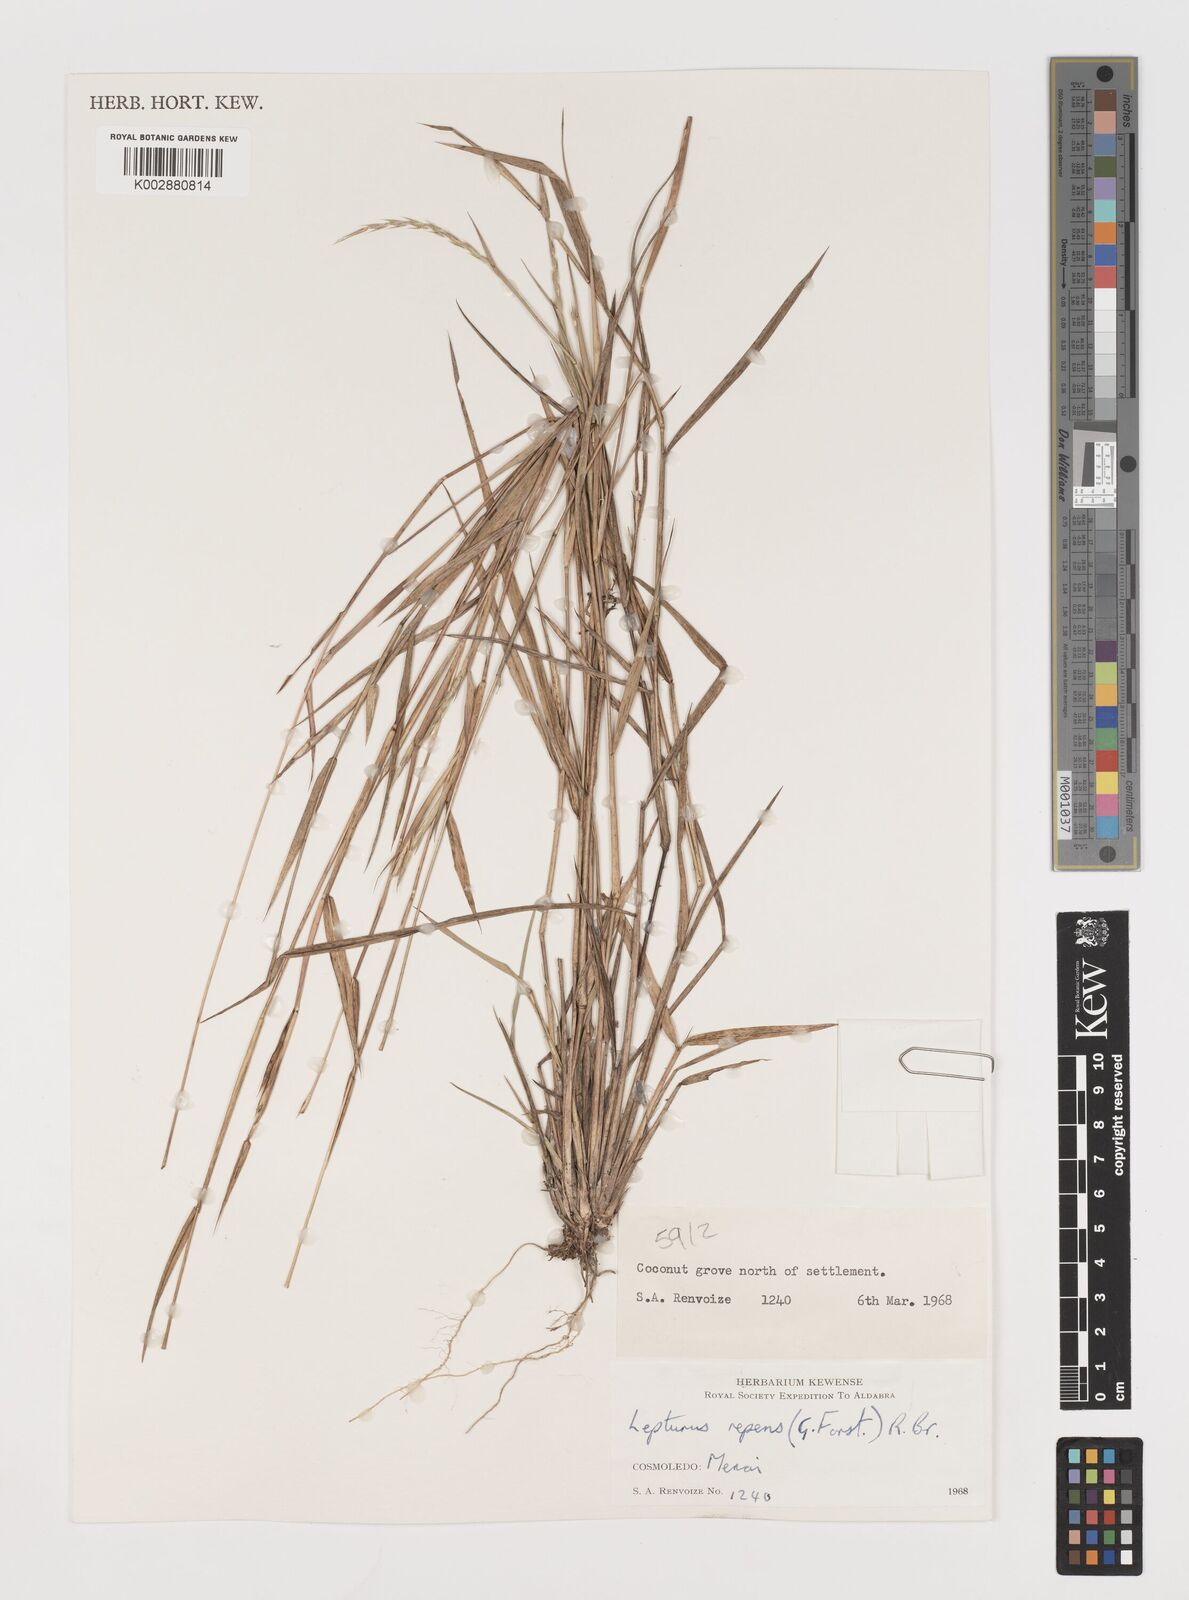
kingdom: Plantae
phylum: Tracheophyta
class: Liliopsida
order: Poales
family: Poaceae
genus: Lepturus
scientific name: Lepturus repens
